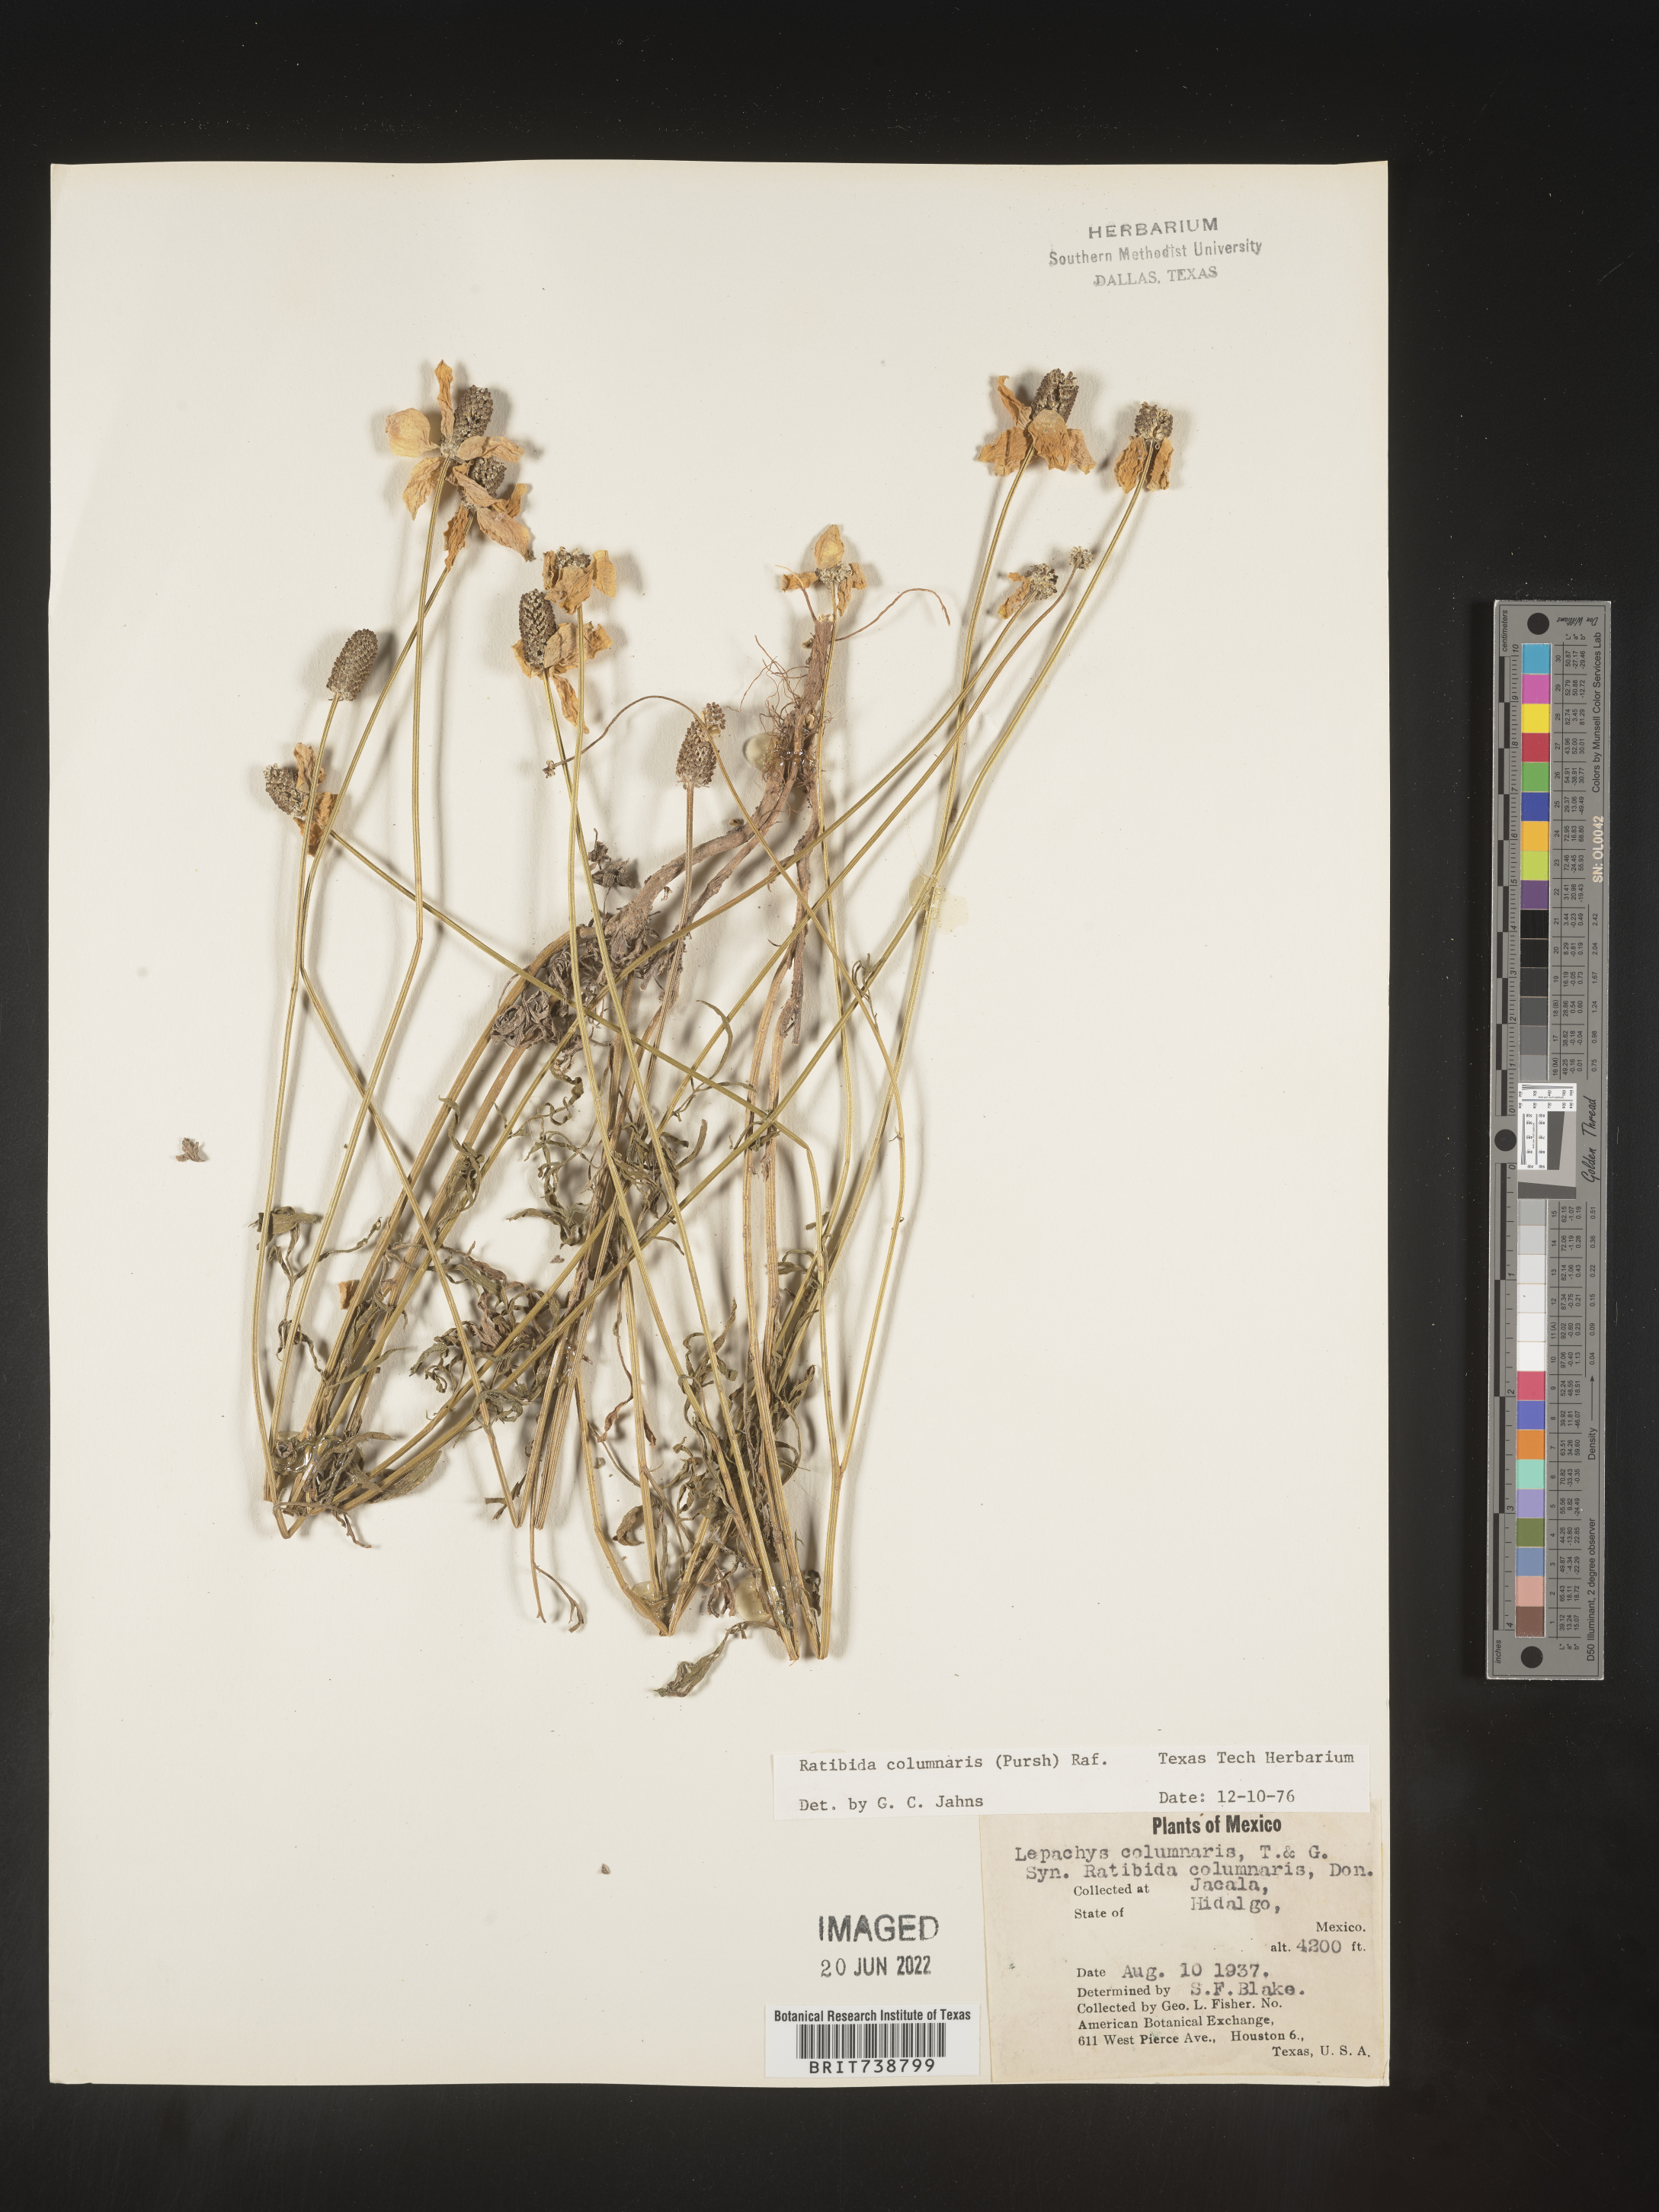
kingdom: Plantae
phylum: Tracheophyta
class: Magnoliopsida
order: Asterales
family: Asteraceae
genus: Ratibida
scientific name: Ratibida
